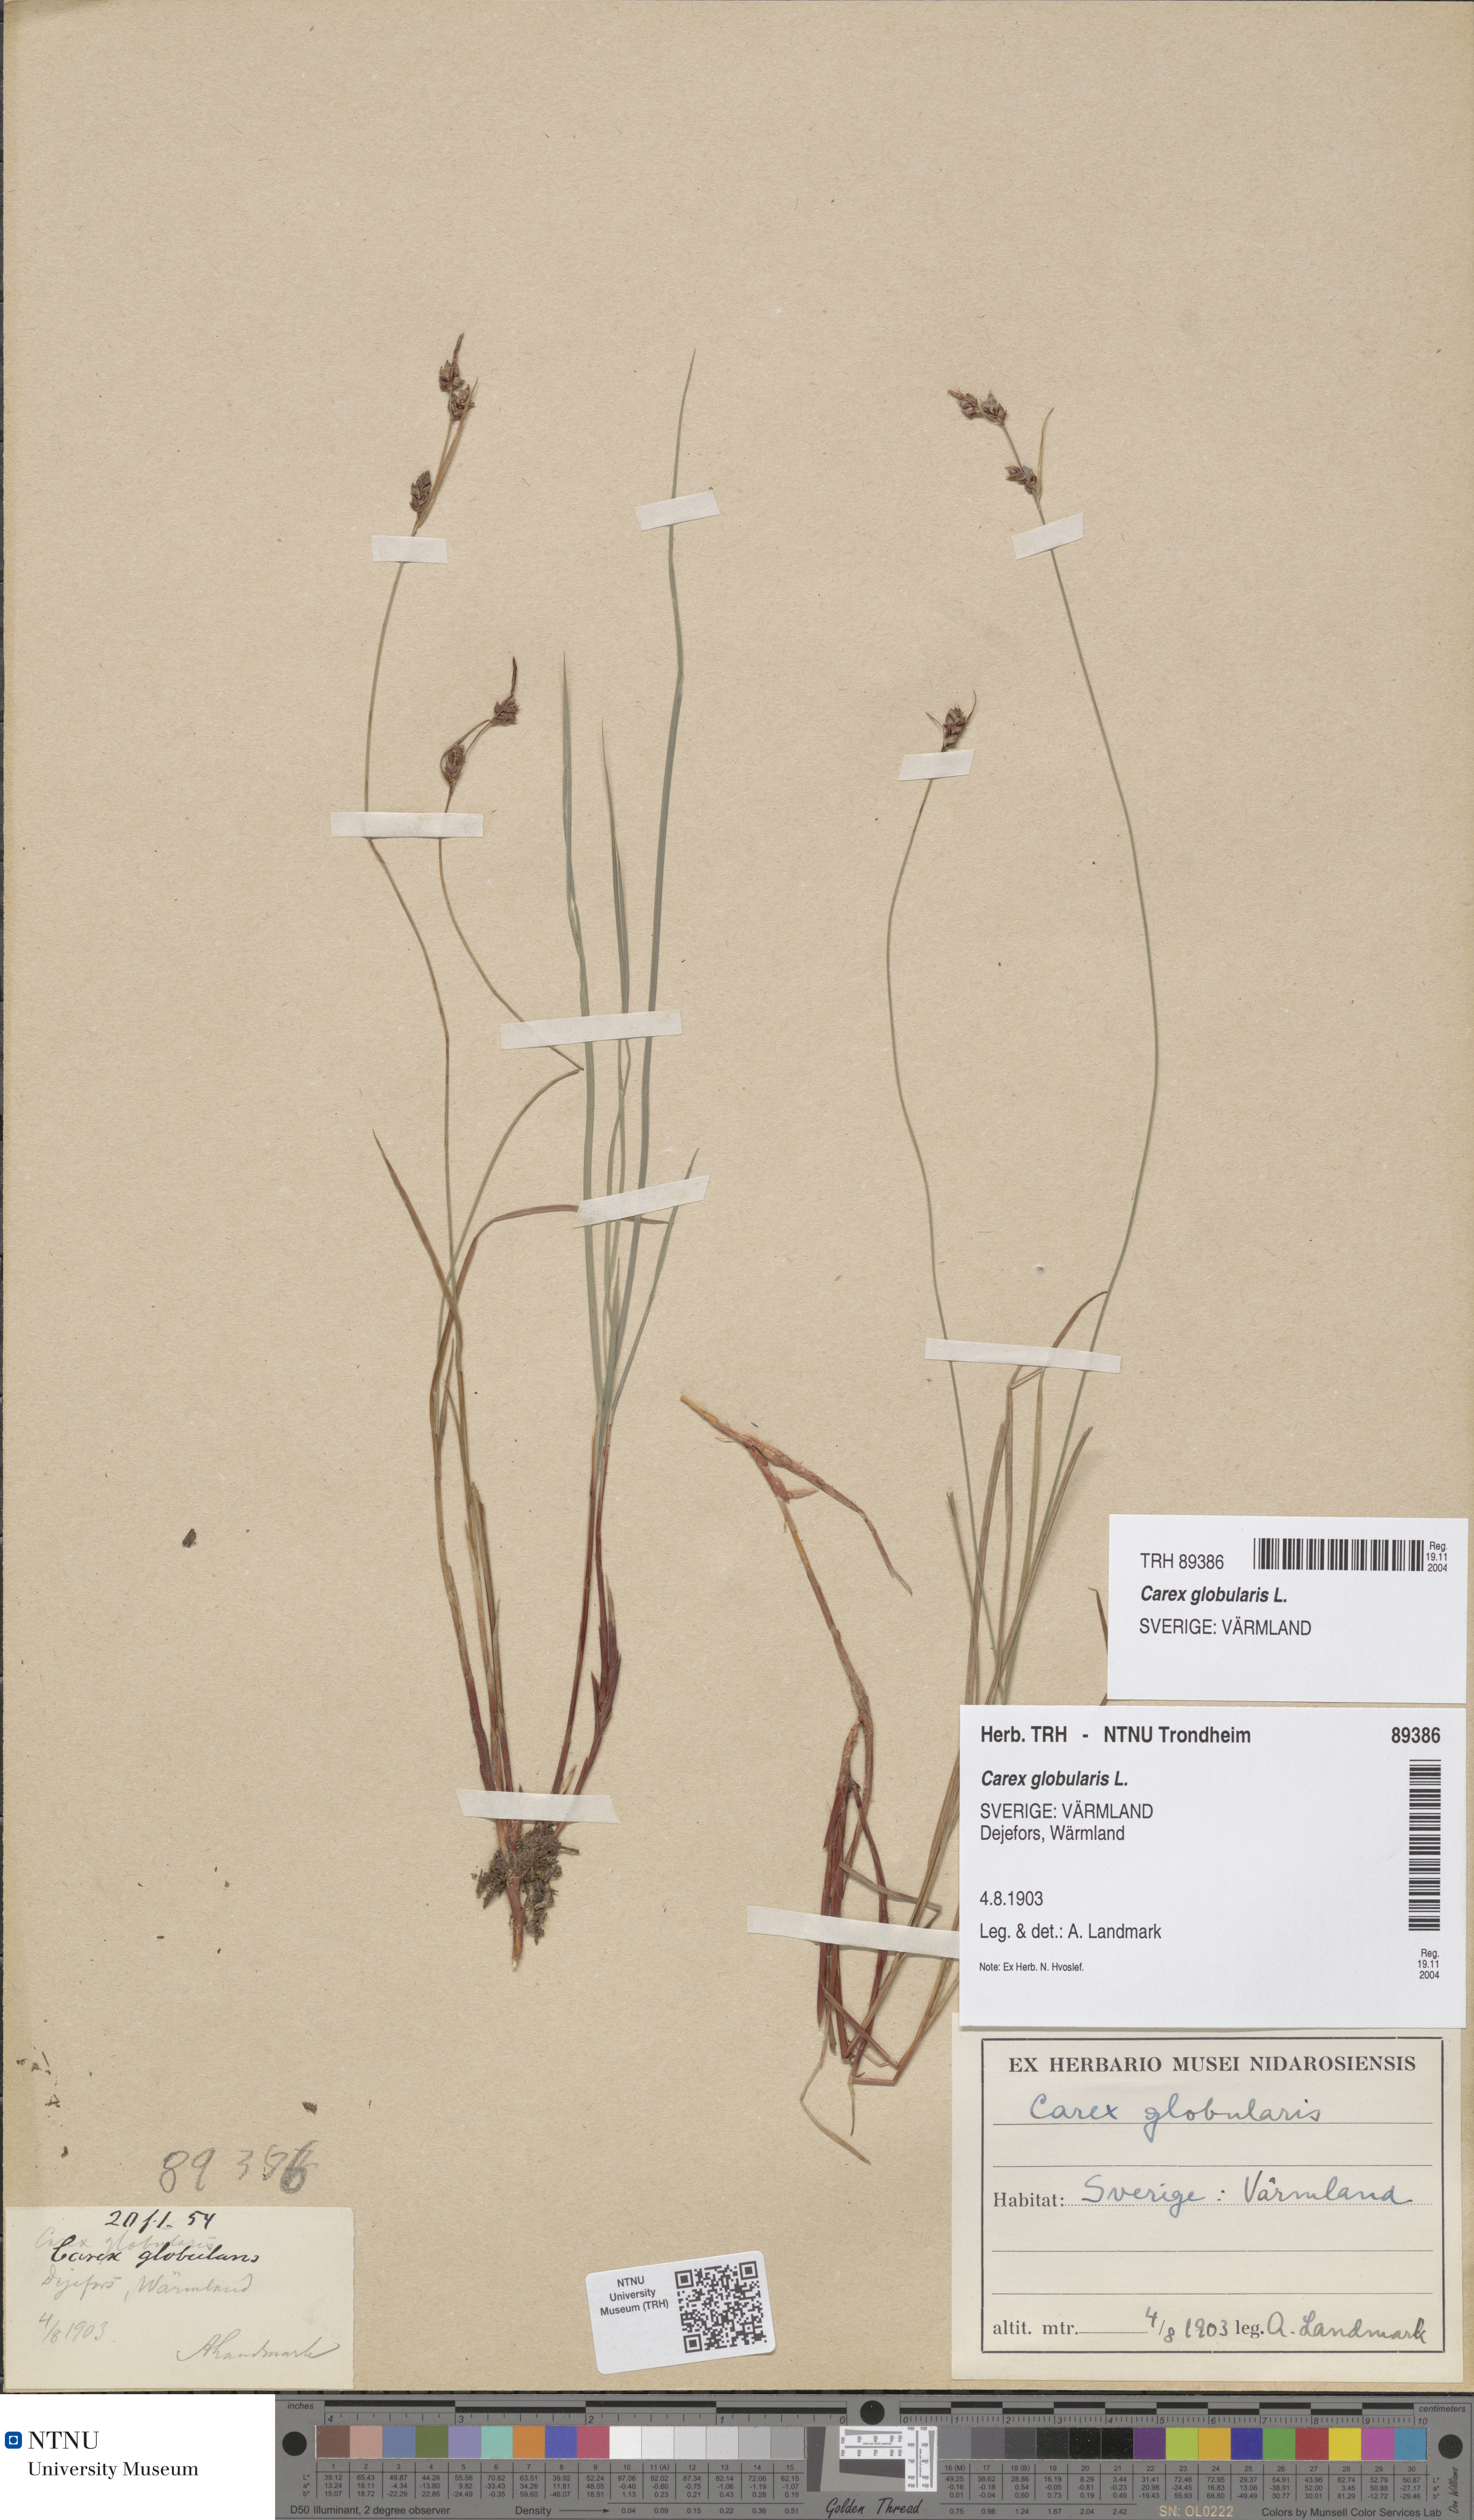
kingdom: Plantae
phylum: Tracheophyta
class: Liliopsida
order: Poales
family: Cyperaceae
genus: Carex
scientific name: Carex globularis
